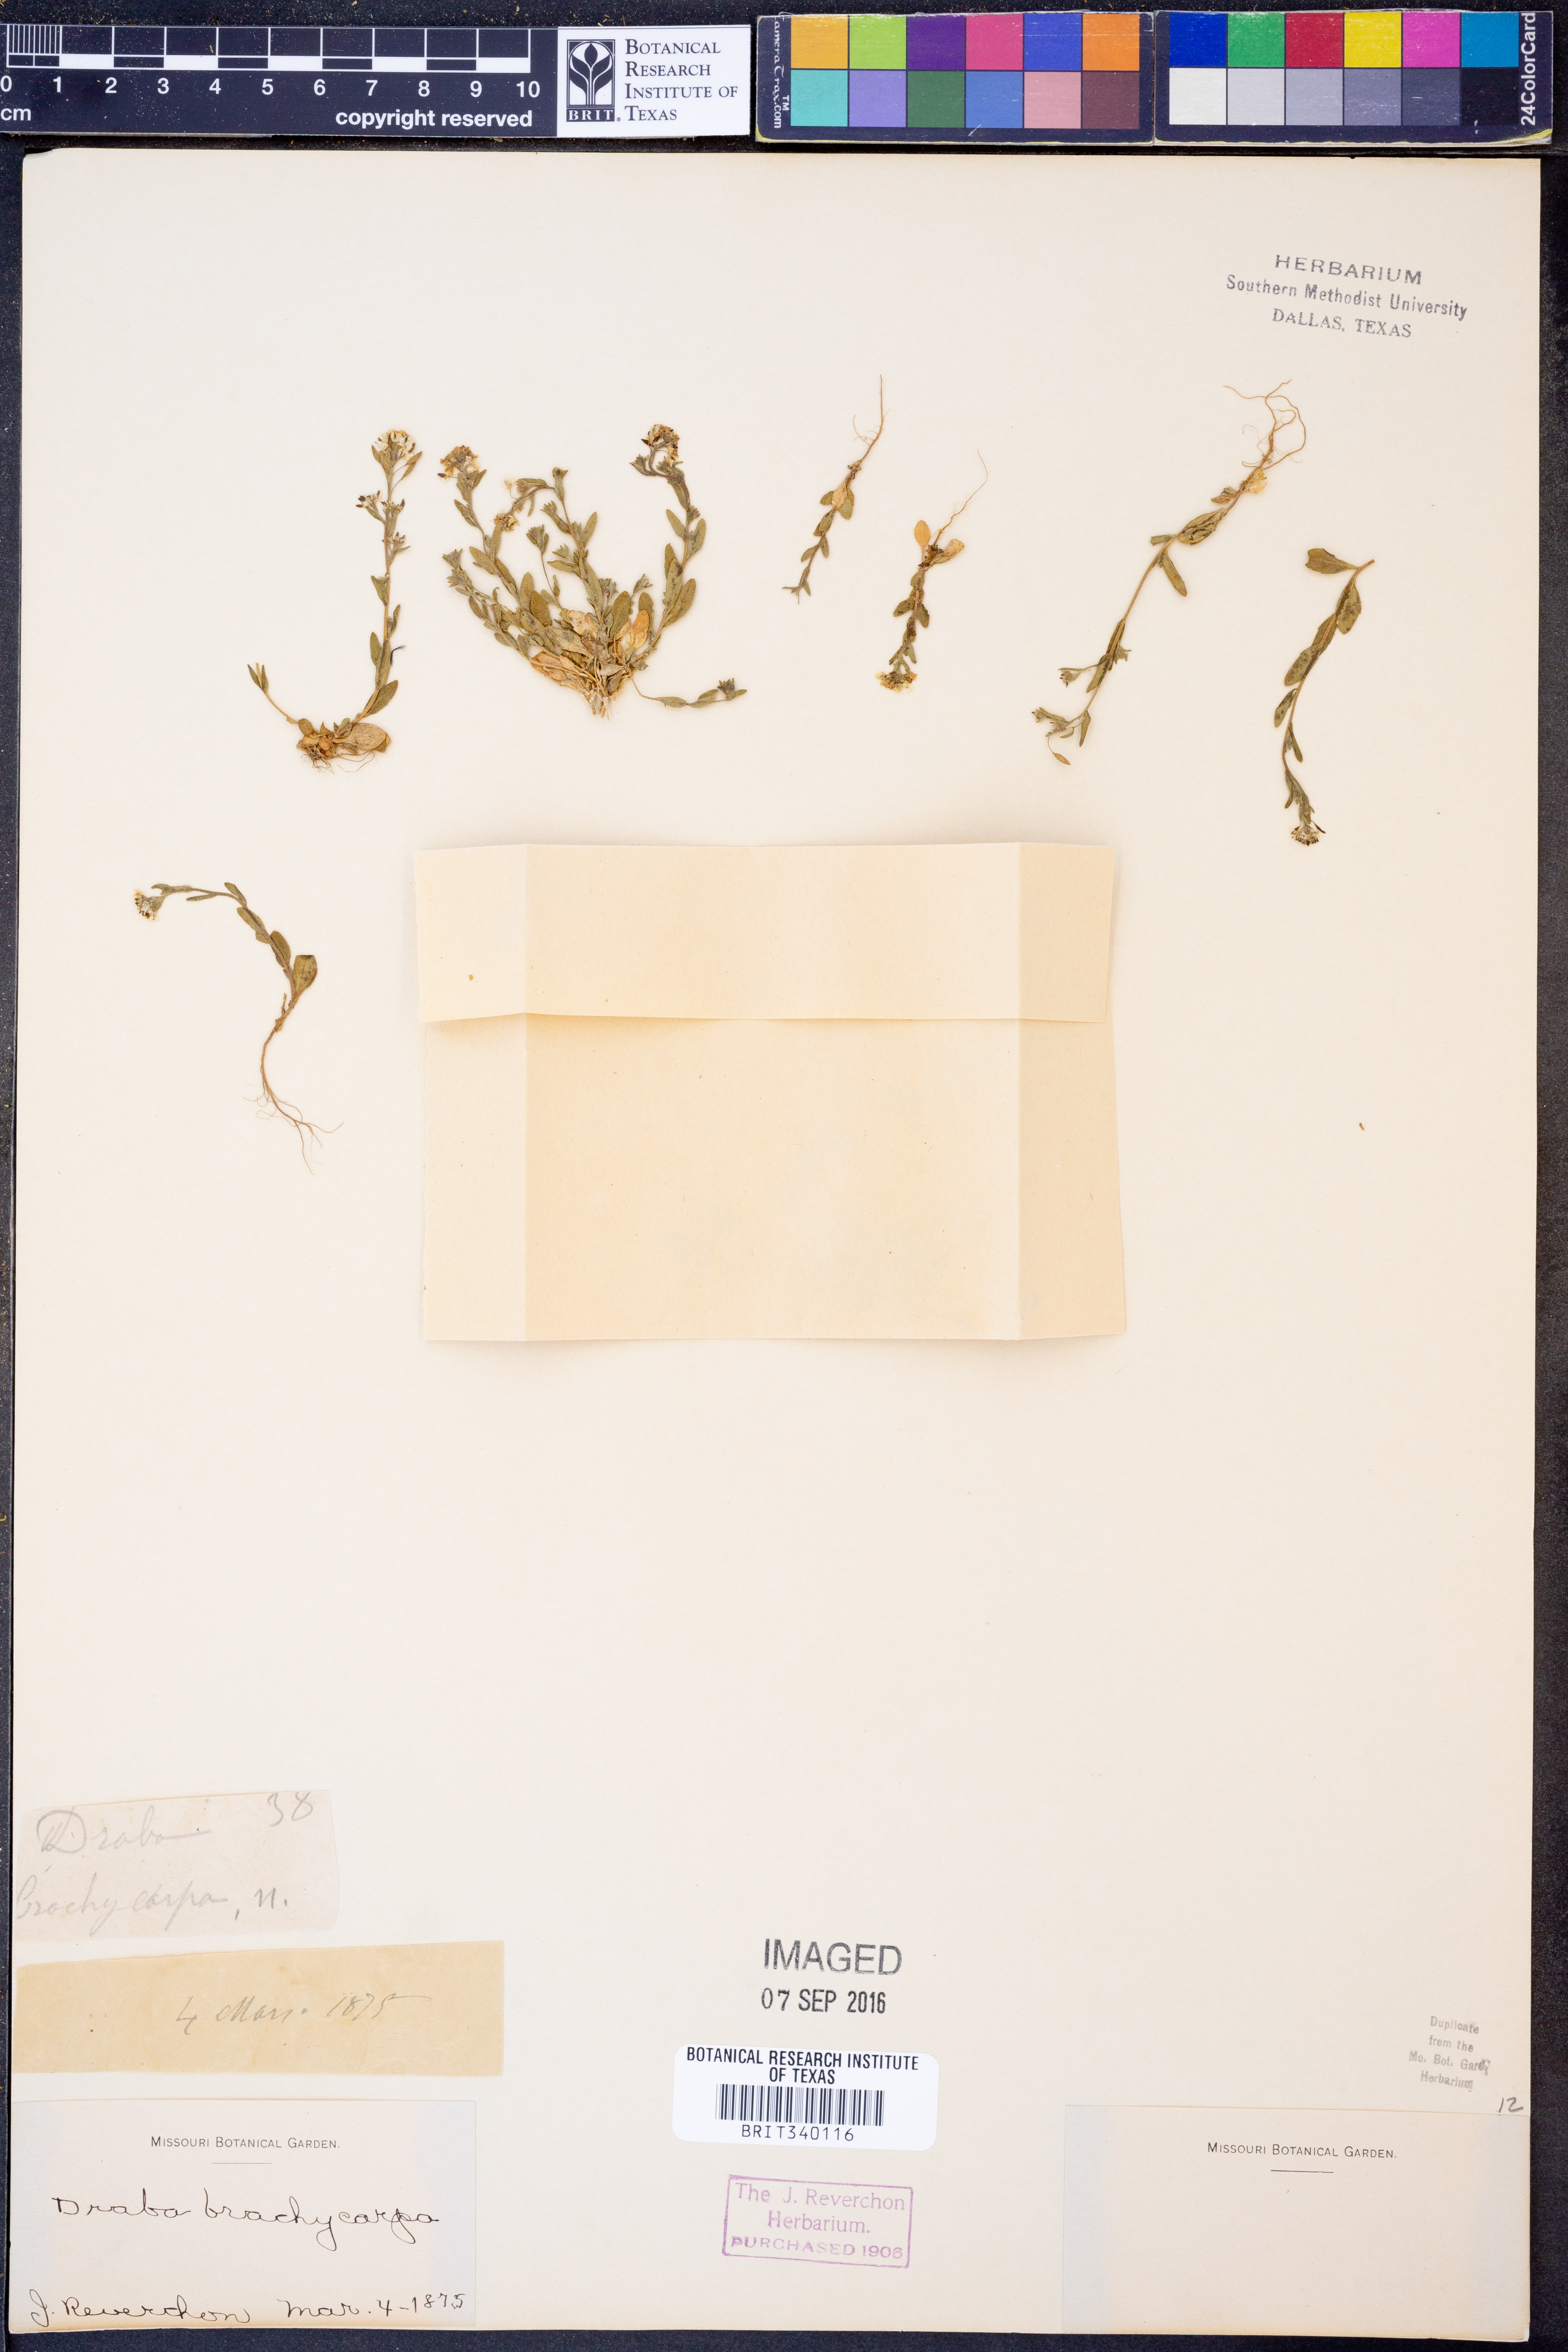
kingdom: Plantae
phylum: Tracheophyta
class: Magnoliopsida
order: Brassicales
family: Brassicaceae
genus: Abdra
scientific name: Abdra brachycarpa
